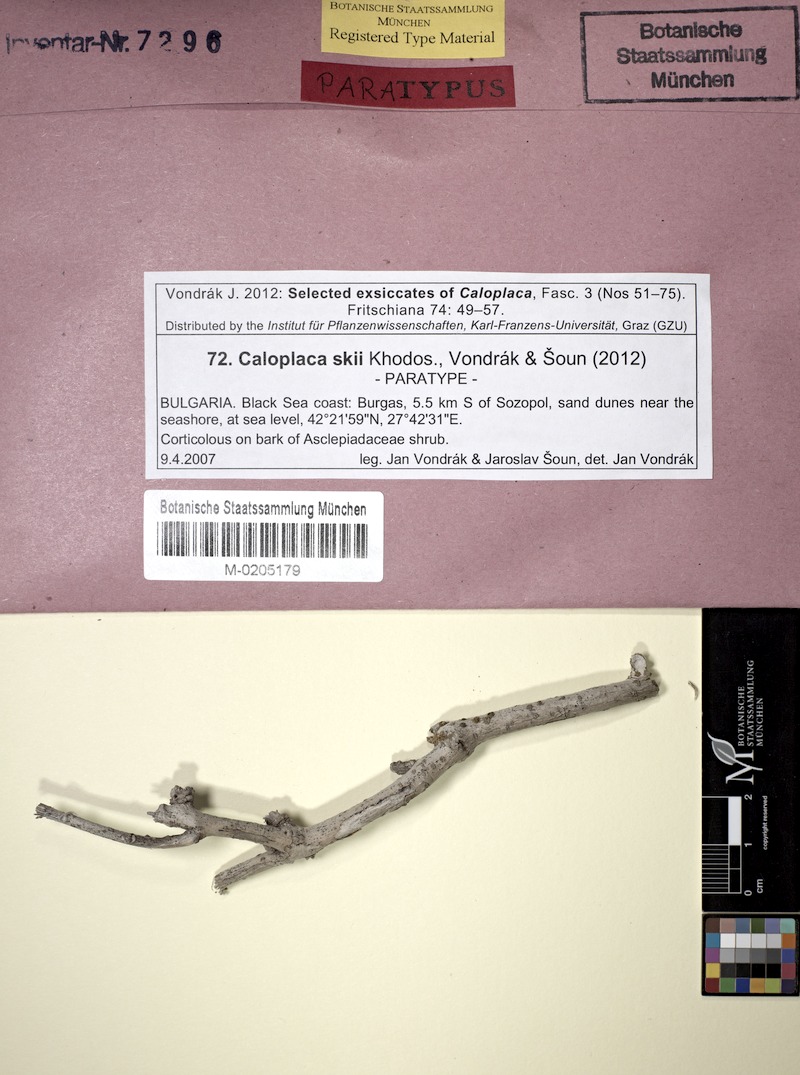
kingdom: Fungi
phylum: Ascomycota
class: Lecanoromycetes
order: Teloschistales
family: Teloschistaceae
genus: Fominiella
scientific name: Fominiella skii
